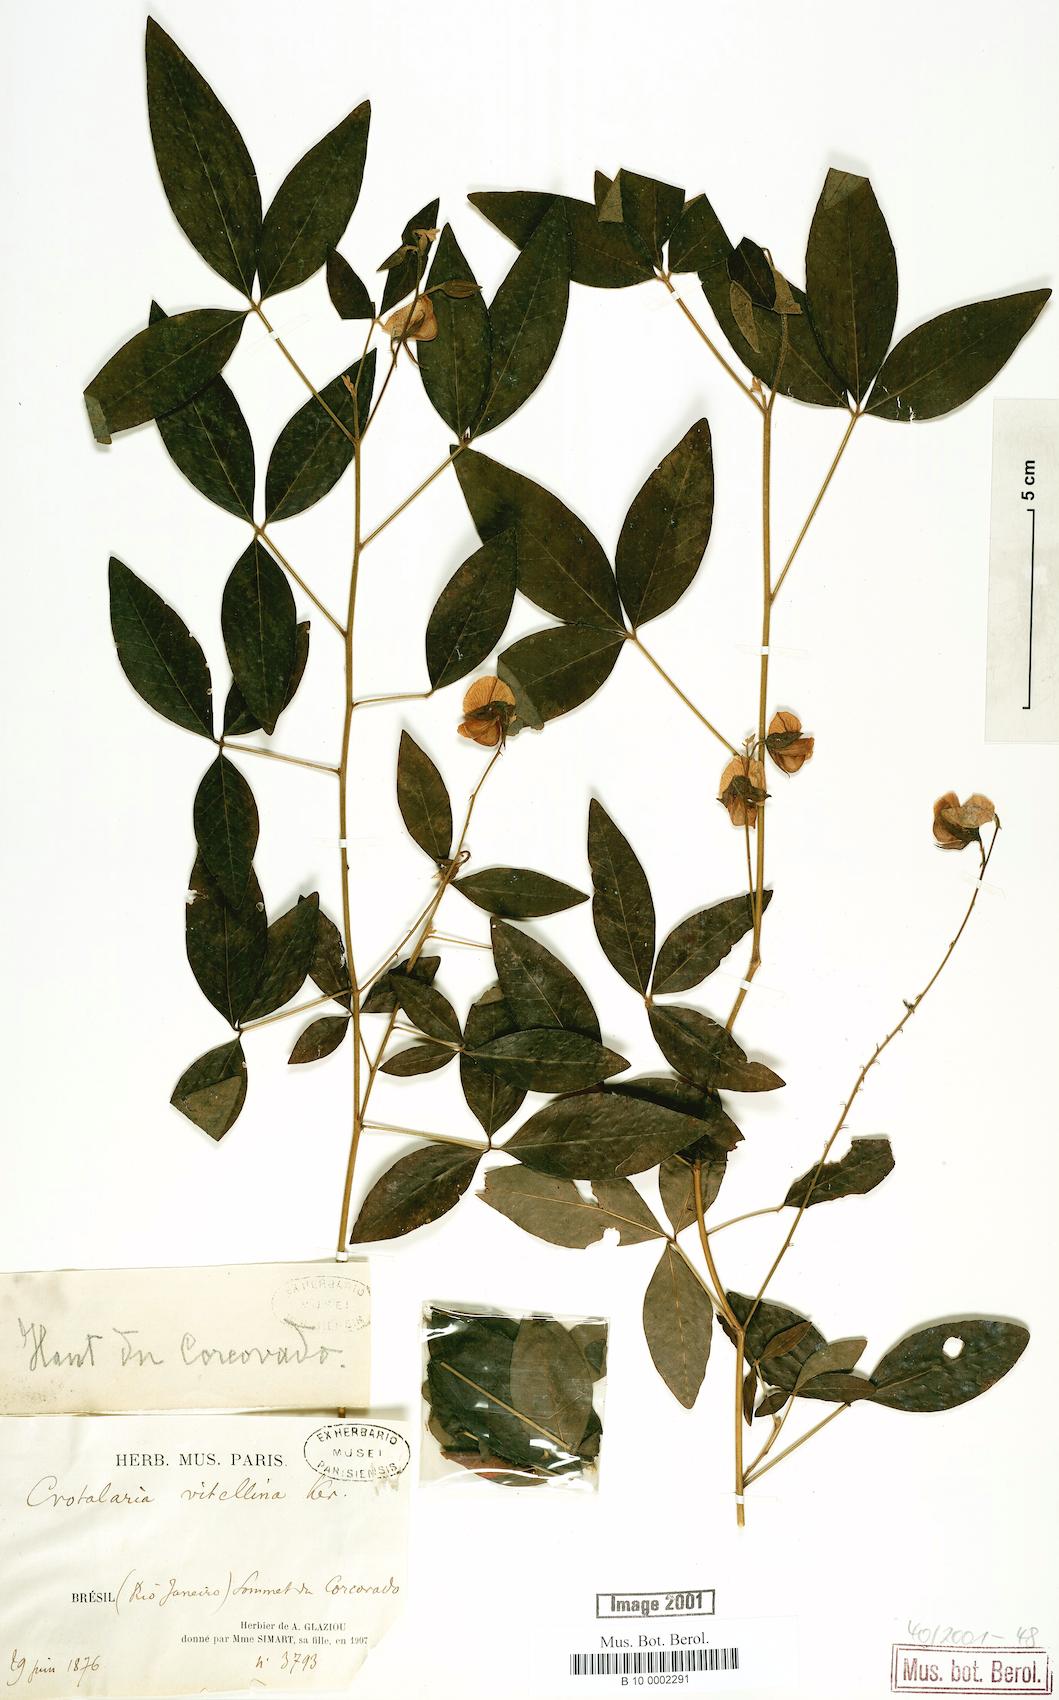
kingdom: Plantae
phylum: Tracheophyta
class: Magnoliopsida
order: Fabales
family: Fabaceae
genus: Crotalaria
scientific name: Crotalaria vitellina
